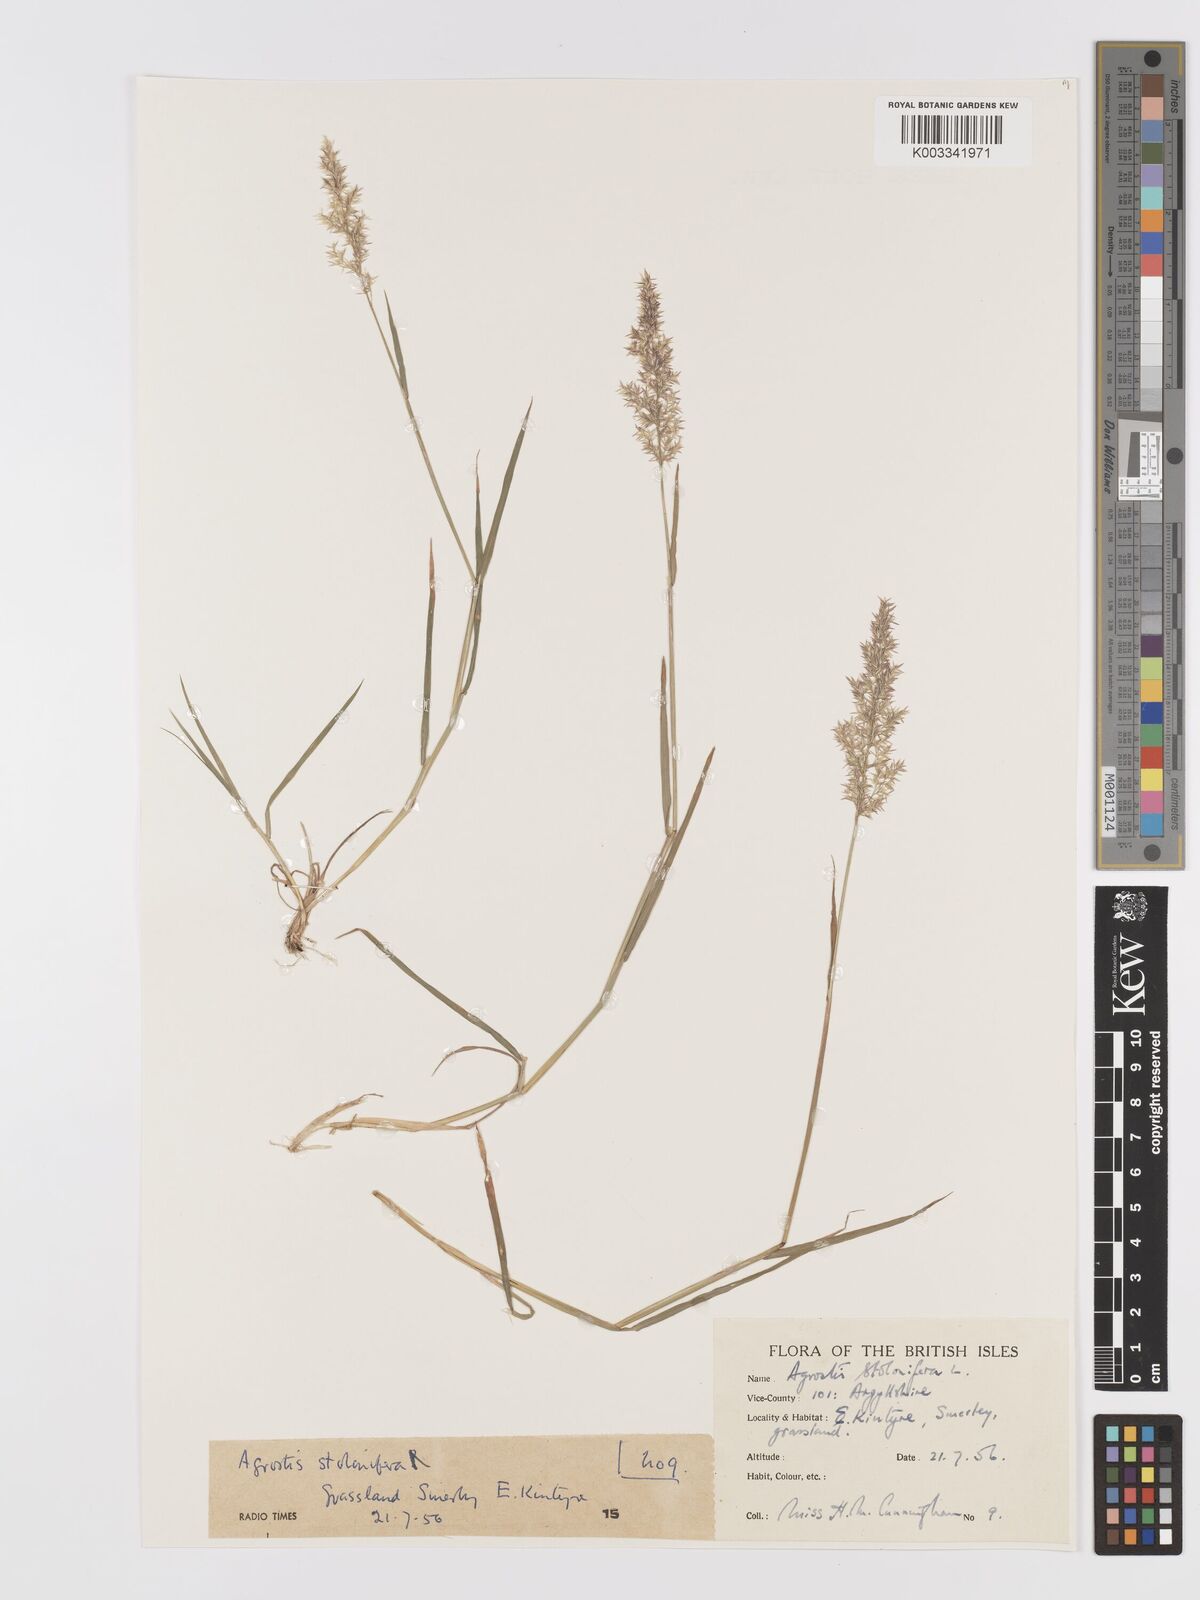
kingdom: Plantae
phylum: Tracheophyta
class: Liliopsida
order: Poales
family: Poaceae
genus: Agrostis
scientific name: Agrostis stolonifera
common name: Creeping bentgrass
